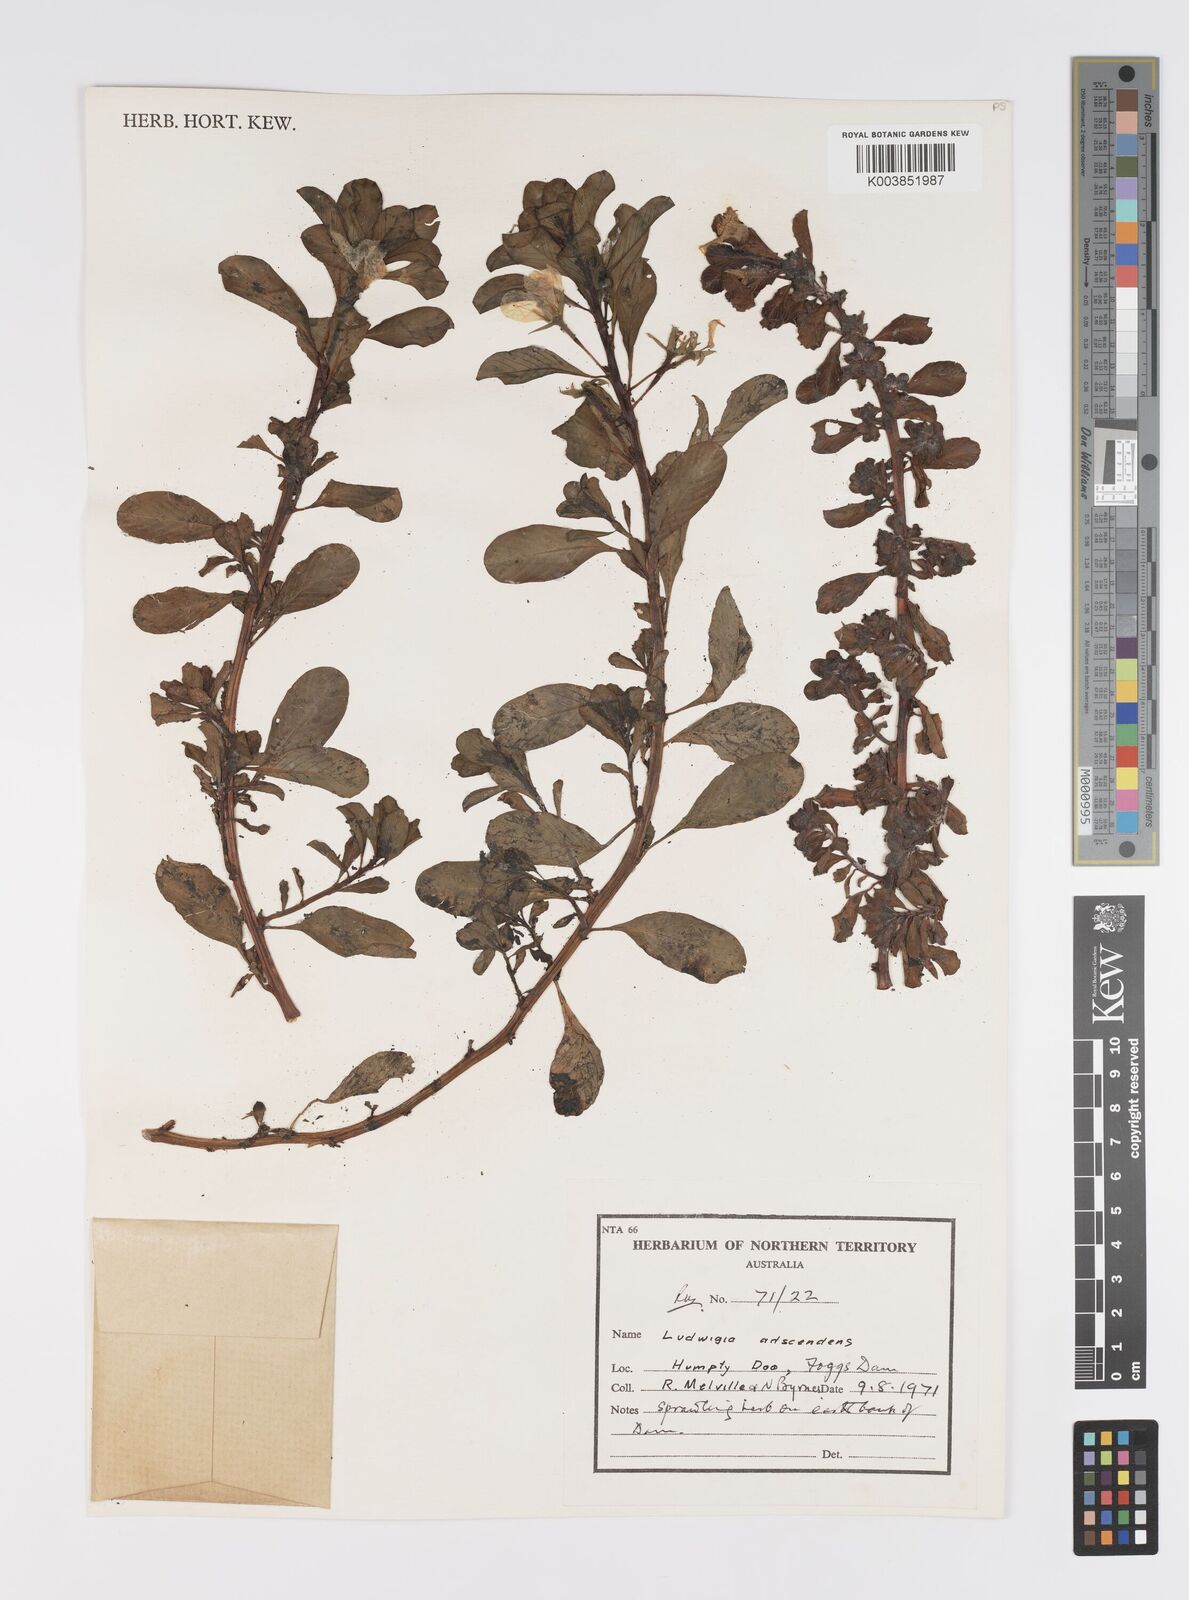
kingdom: Plantae
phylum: Tracheophyta
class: Magnoliopsida
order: Myrtales
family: Onagraceae
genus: Ludwigia
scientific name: Ludwigia adscendens
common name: Creeping water primrose
